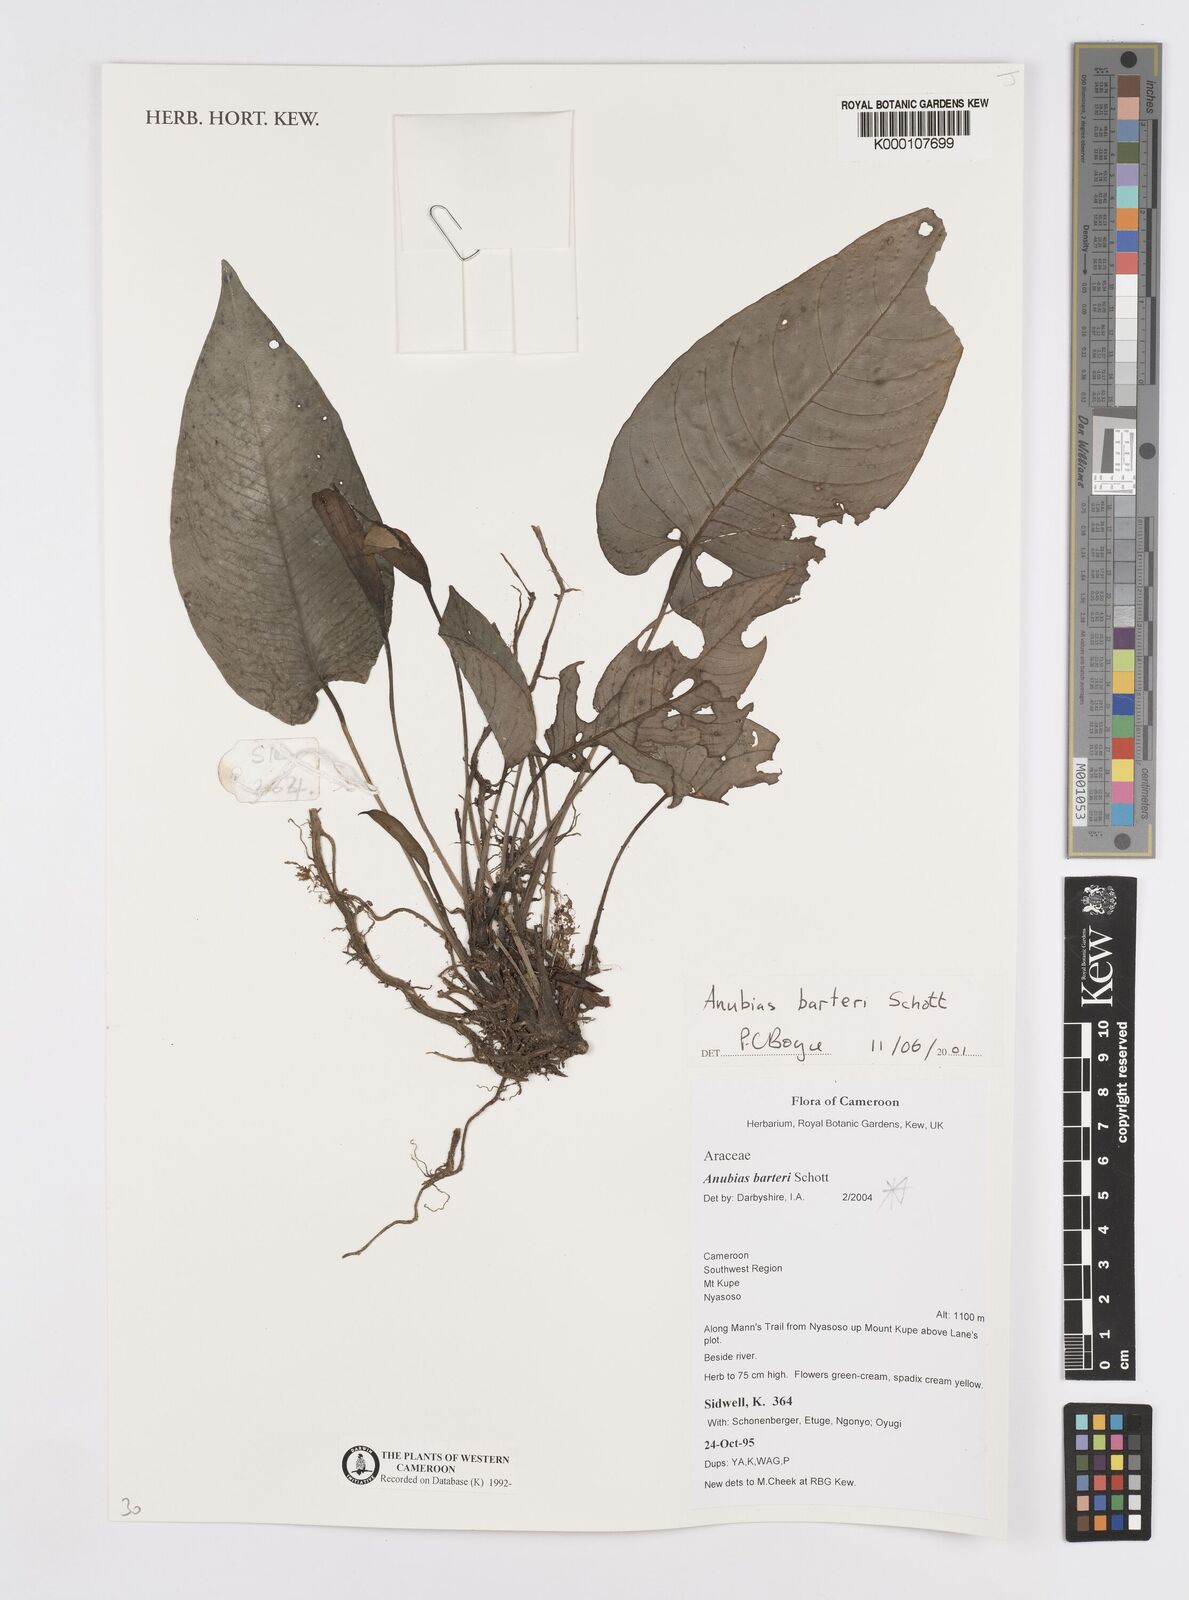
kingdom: Plantae
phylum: Tracheophyta
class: Liliopsida
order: Alismatales
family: Araceae
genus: Anubias
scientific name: Anubias barteri
